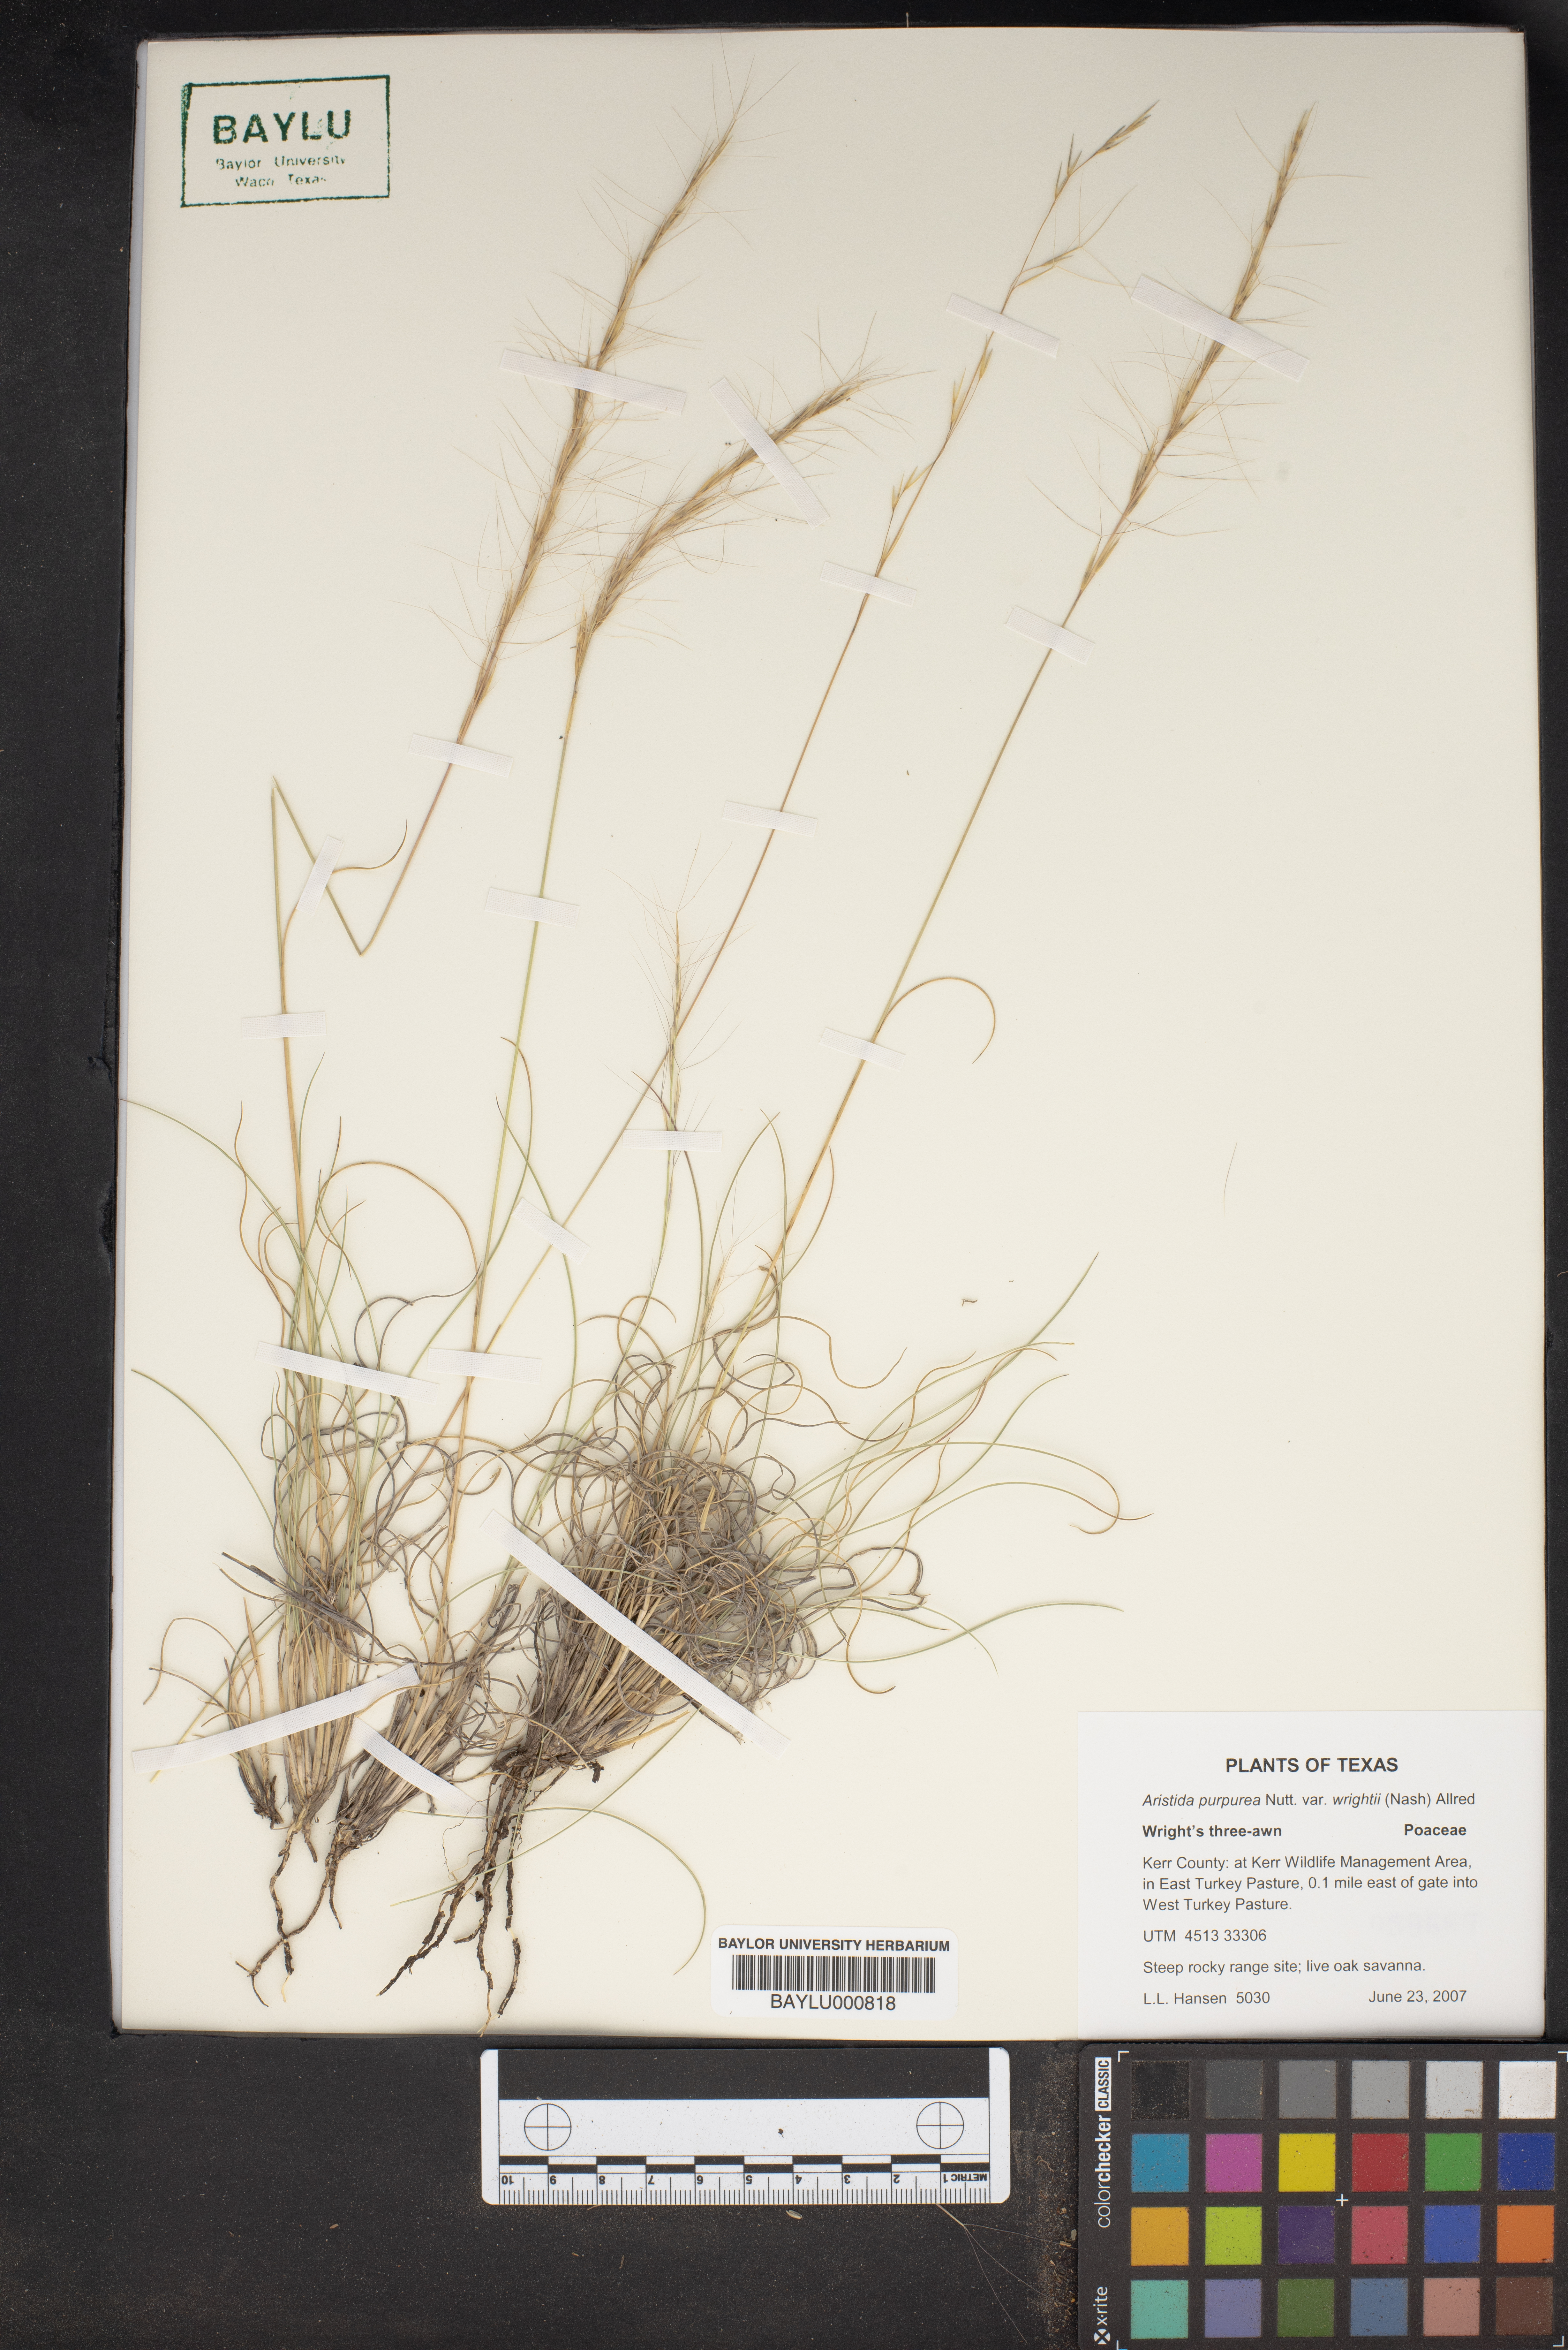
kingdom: Plantae
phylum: Tracheophyta
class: Liliopsida
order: Poales
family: Poaceae
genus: Aristida
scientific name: Aristida wrightii
